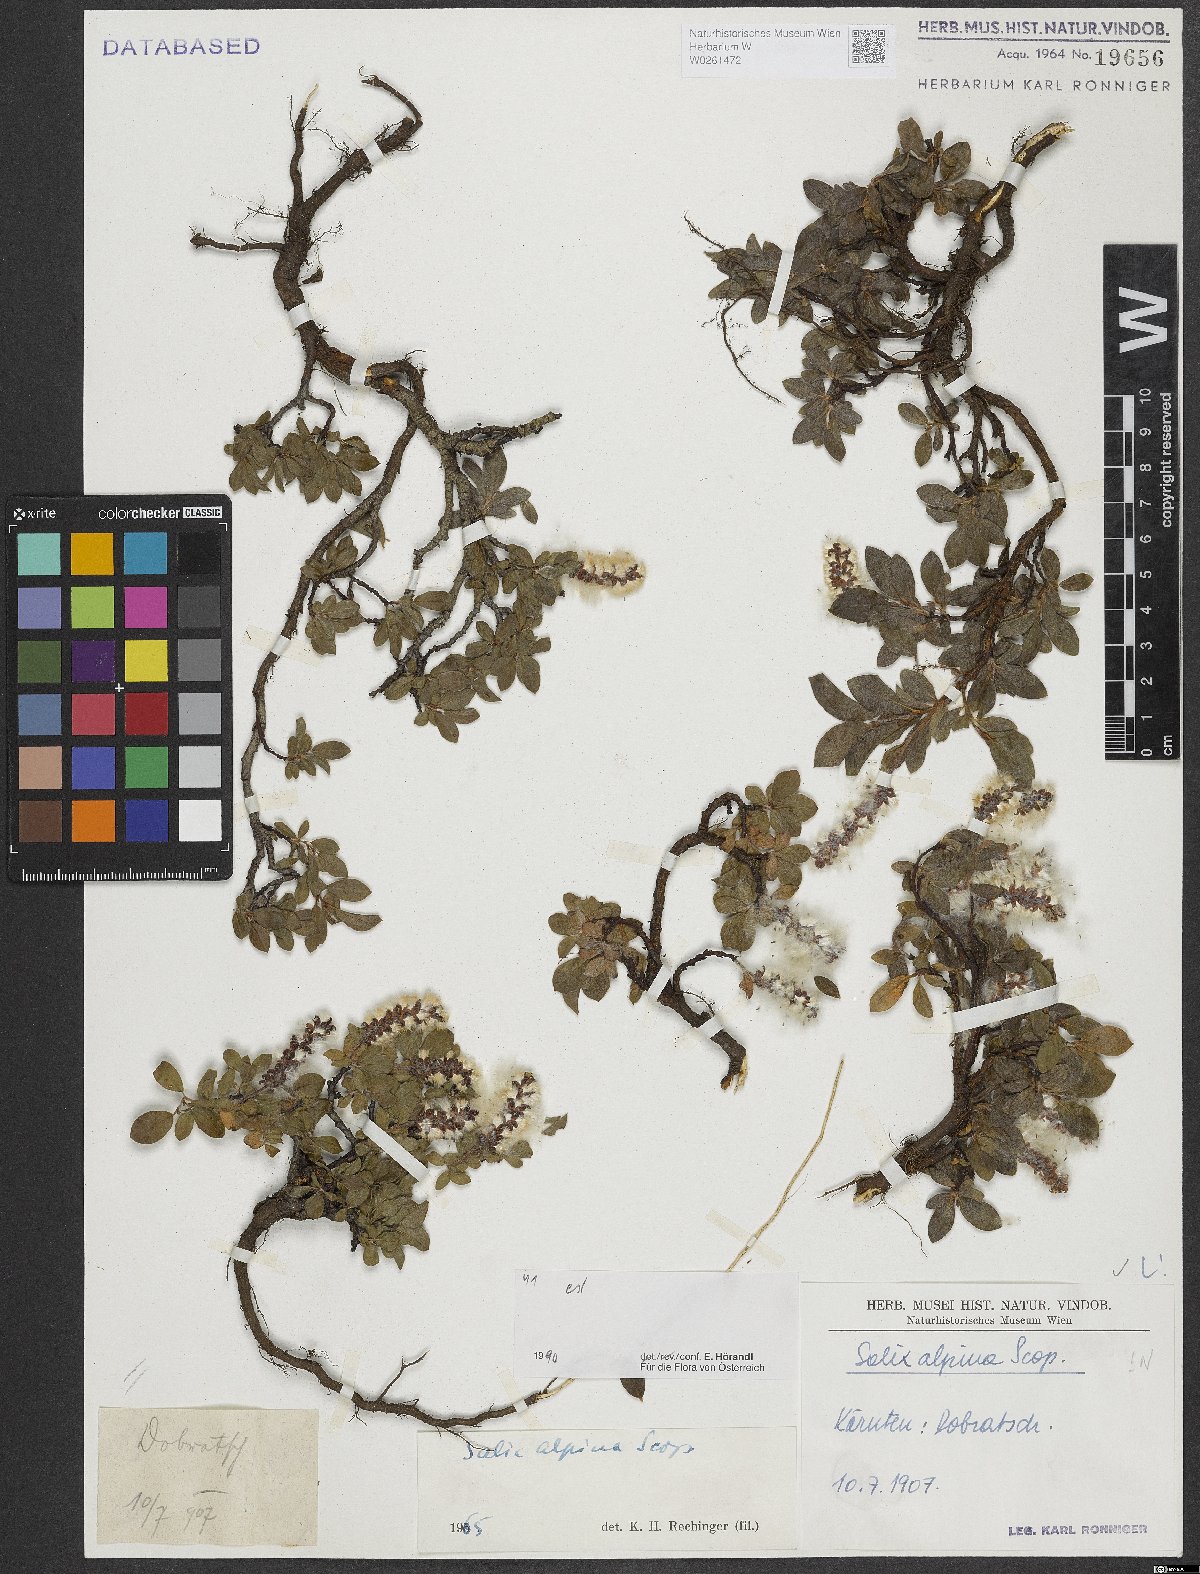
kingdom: Plantae
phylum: Tracheophyta
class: Magnoliopsida
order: Malpighiales
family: Salicaceae
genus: Salix
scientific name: Salix alpina
